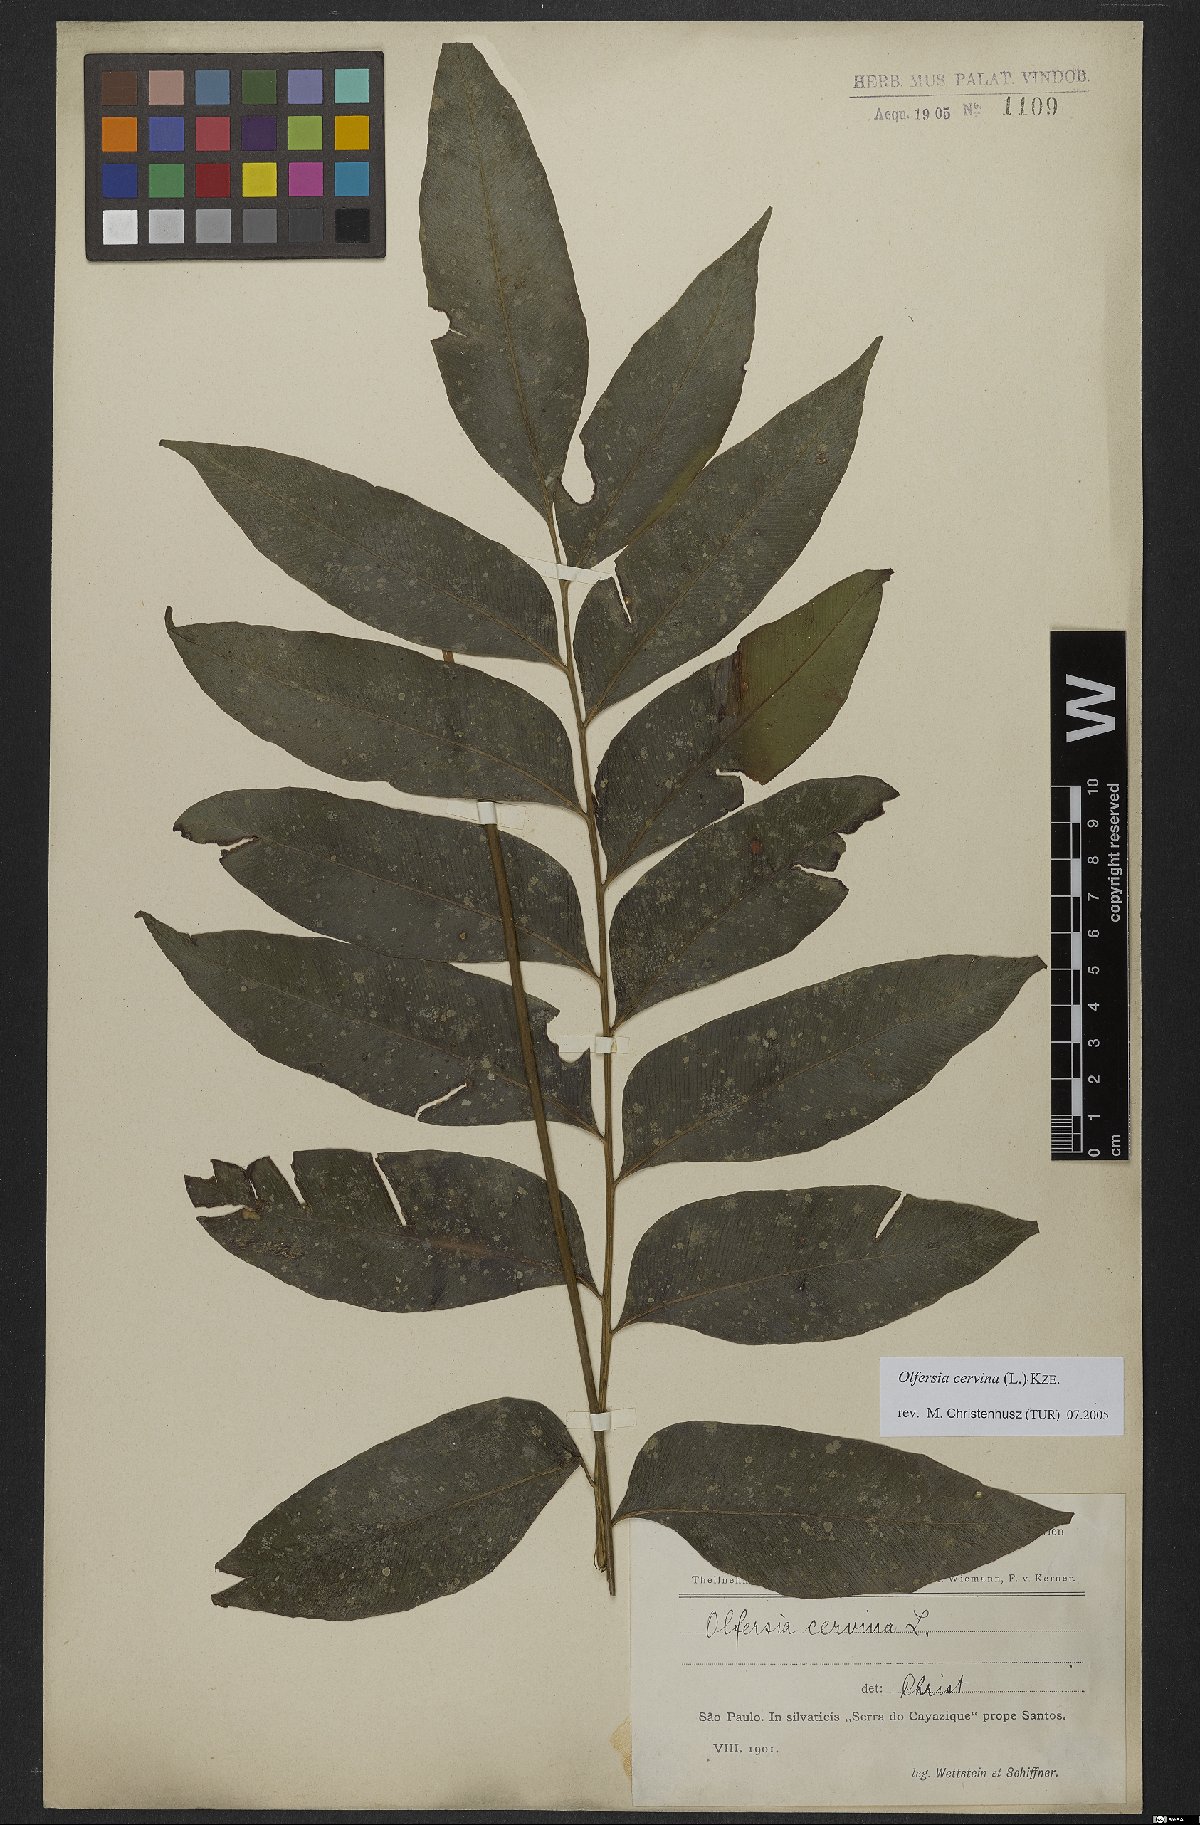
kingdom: Plantae
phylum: Tracheophyta
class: Polypodiopsida
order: Polypodiales
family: Dryopteridaceae
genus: Olfersia
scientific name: Olfersia cervina
